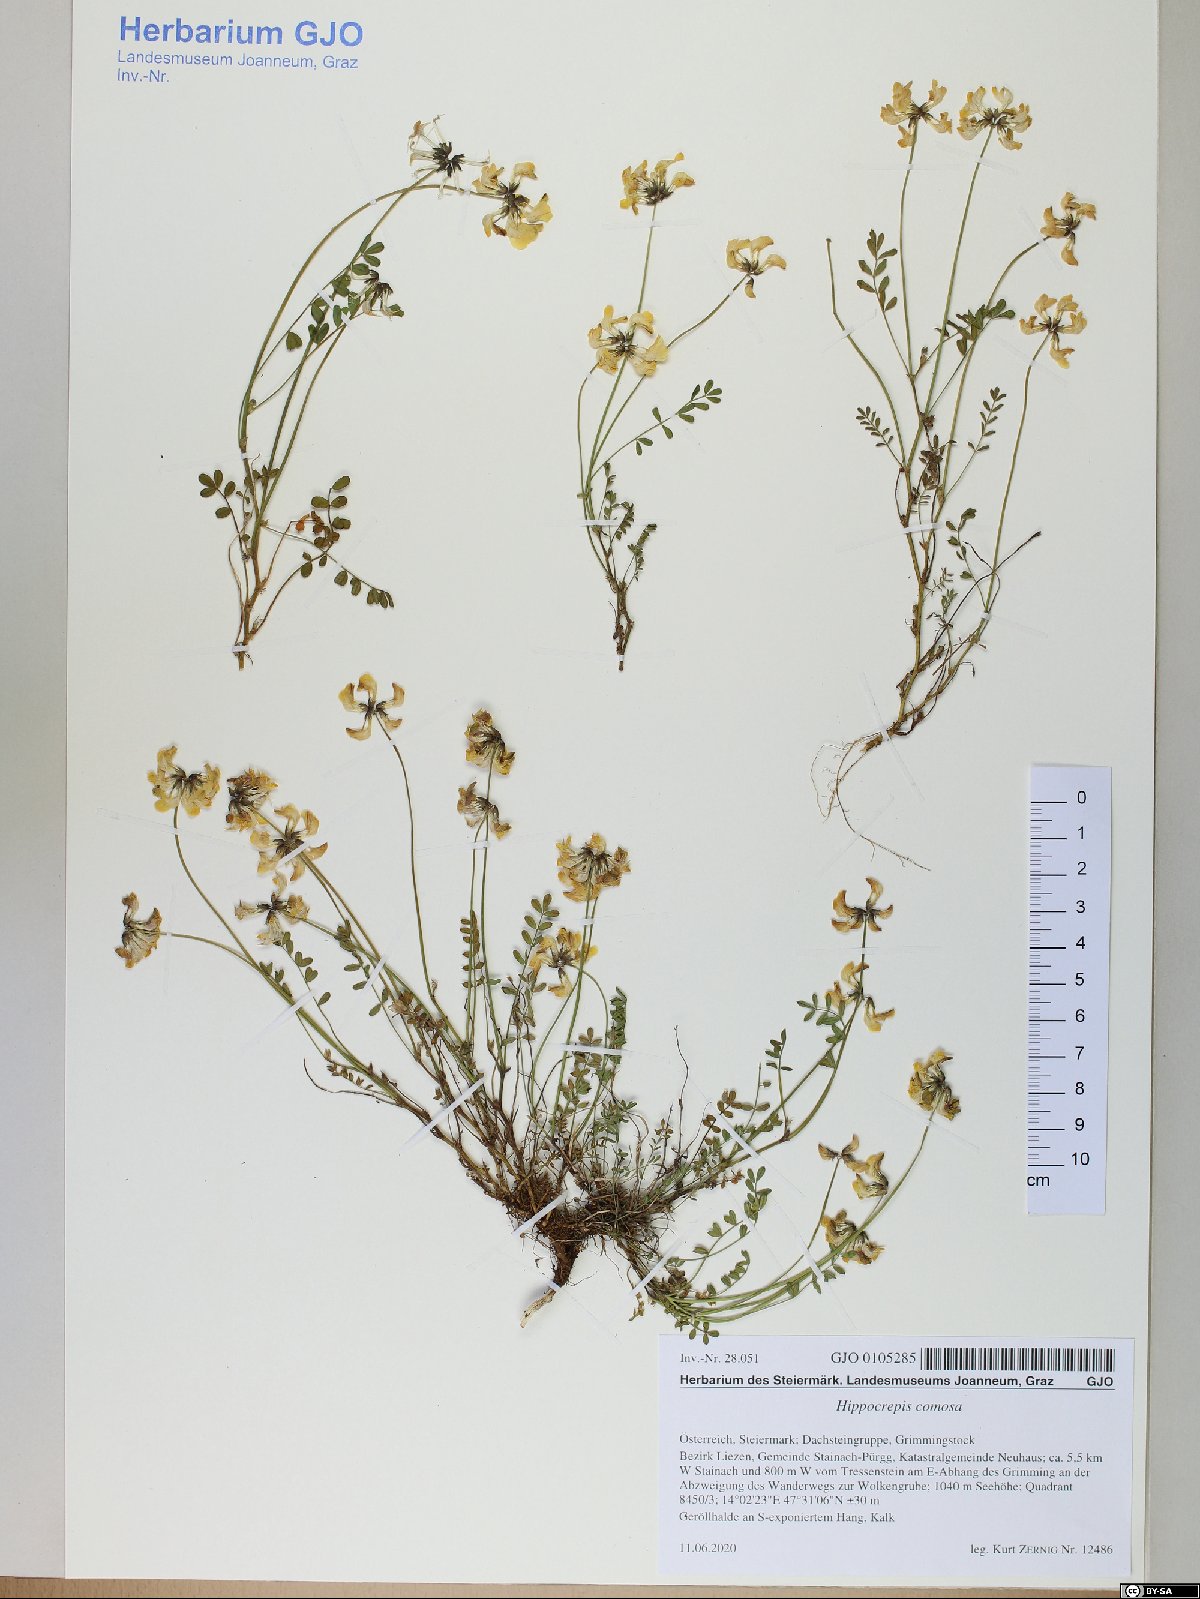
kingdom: Plantae
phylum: Tracheophyta
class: Magnoliopsida
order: Fabales
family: Fabaceae
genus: Hippocrepis
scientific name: Hippocrepis comosa
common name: Horseshoe vetch
